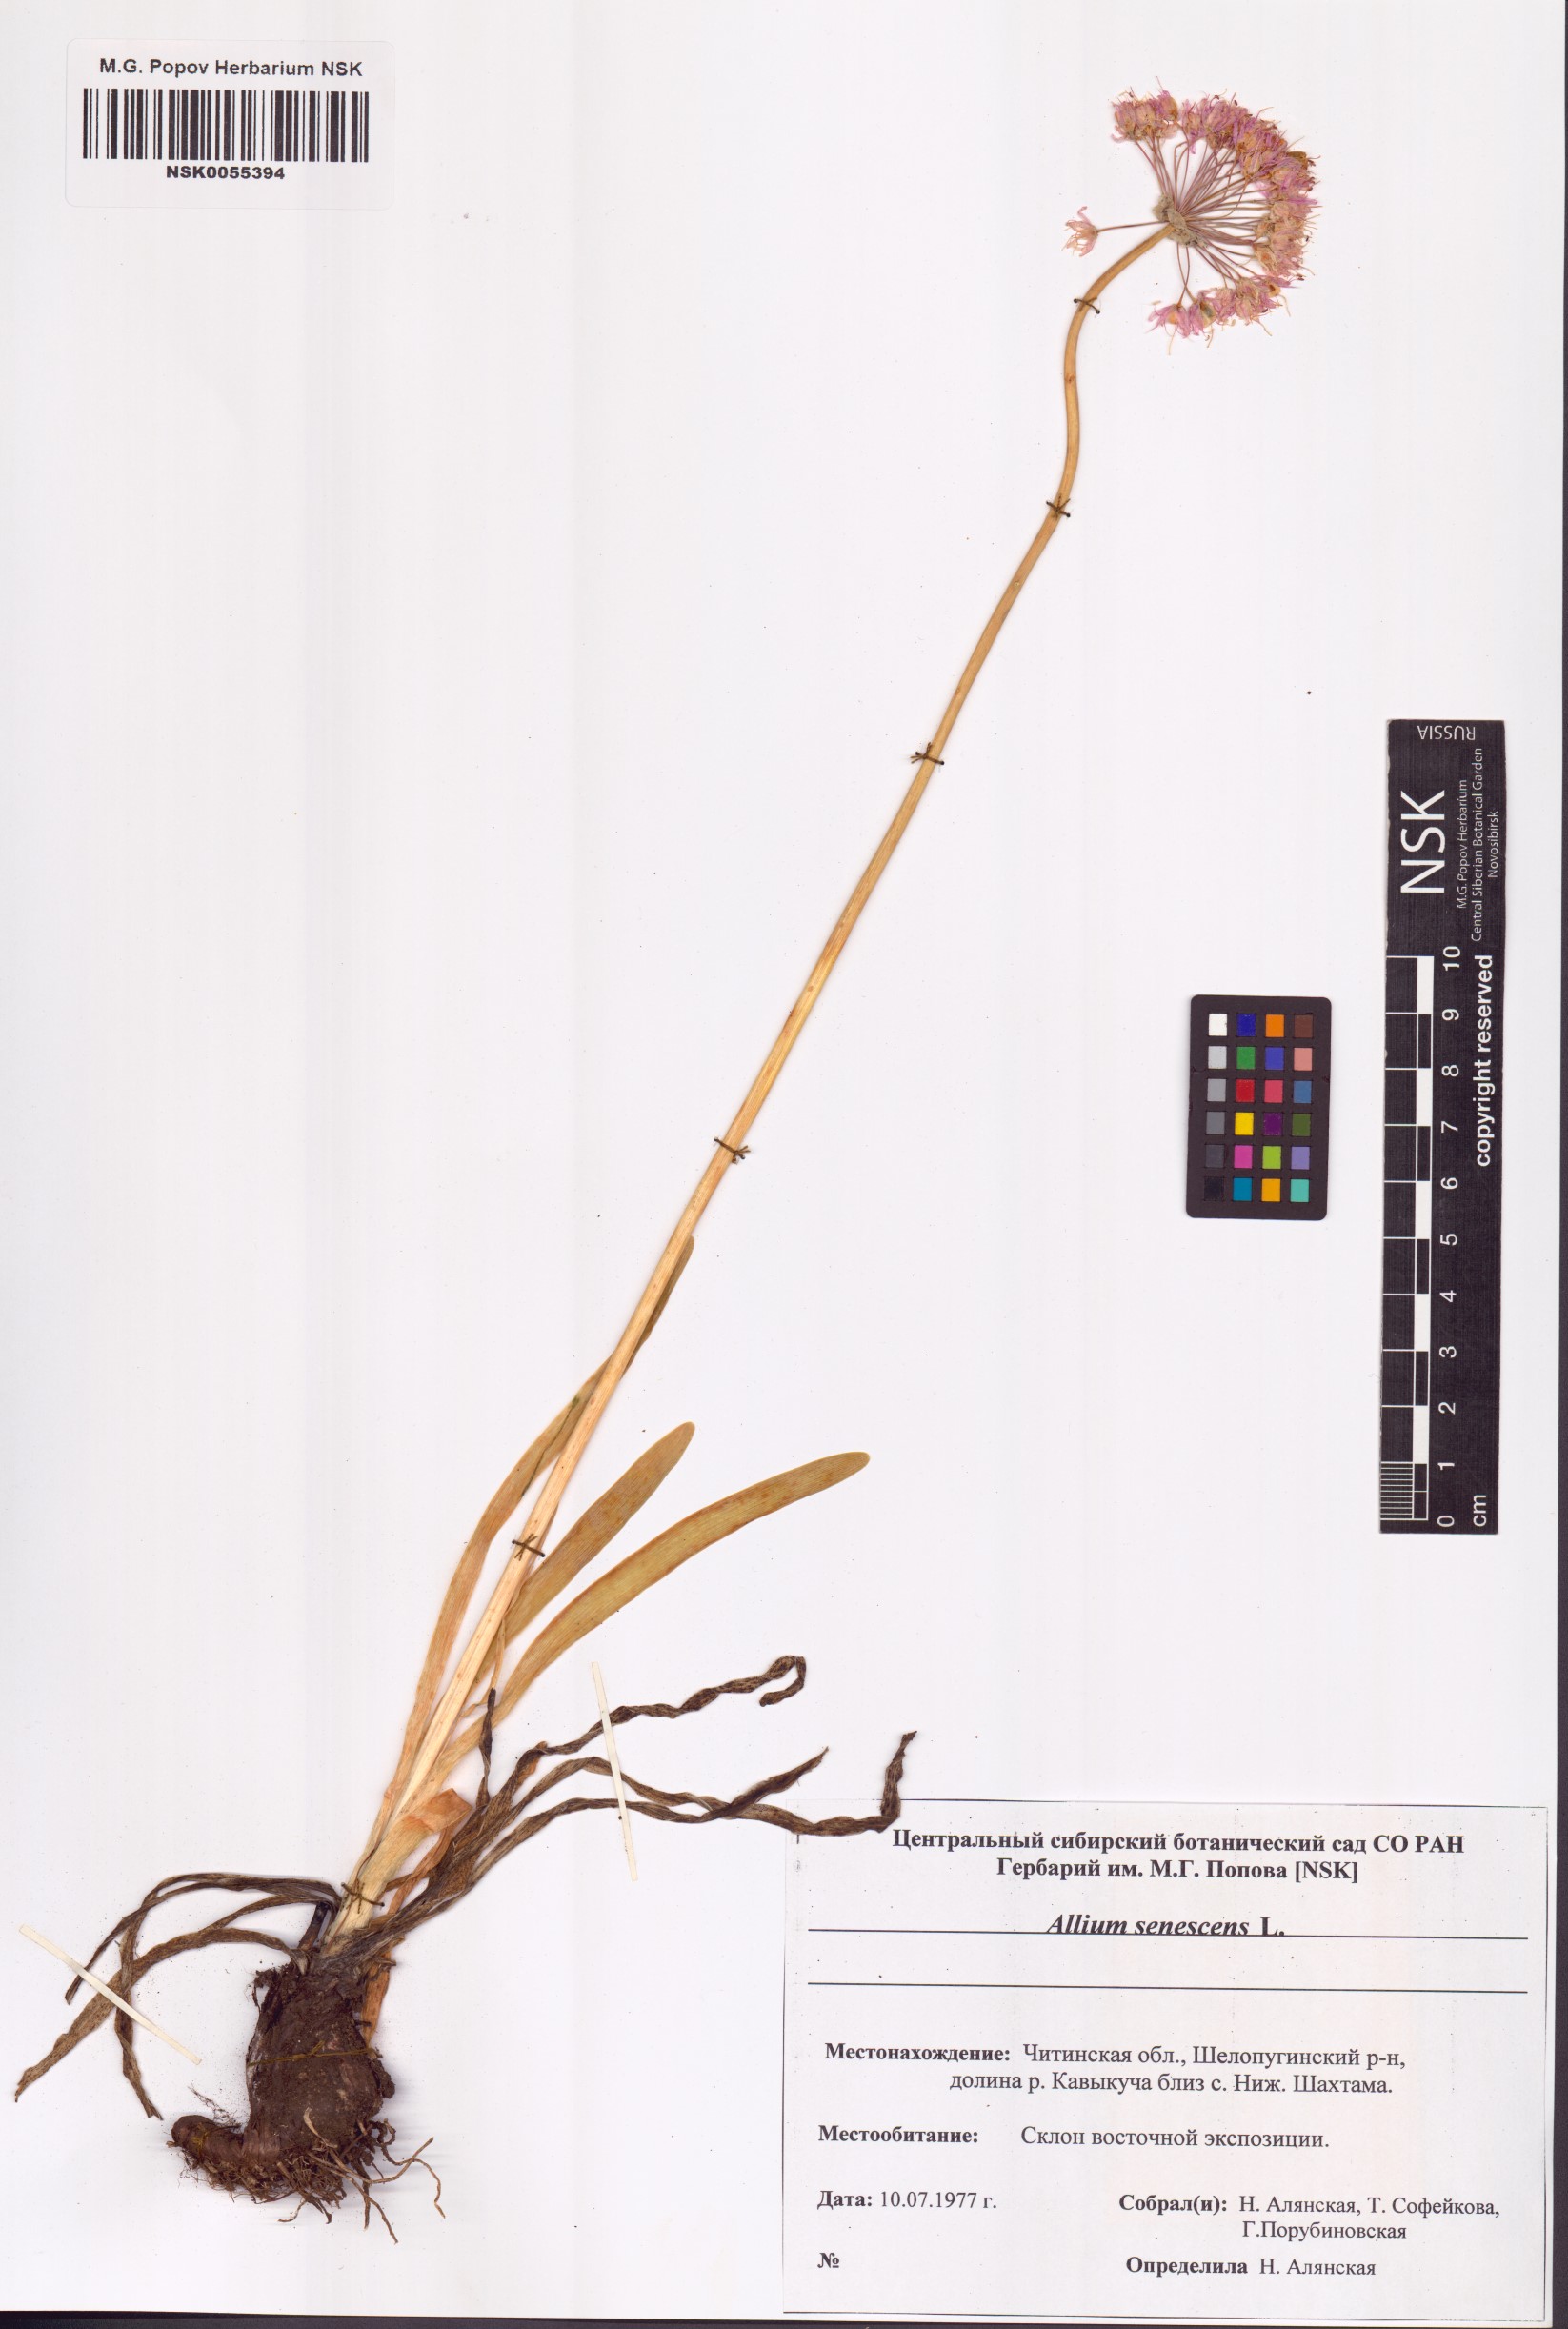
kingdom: Plantae
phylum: Tracheophyta
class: Liliopsida
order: Asparagales
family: Amaryllidaceae
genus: Allium
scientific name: Allium senescens
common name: German garlic
